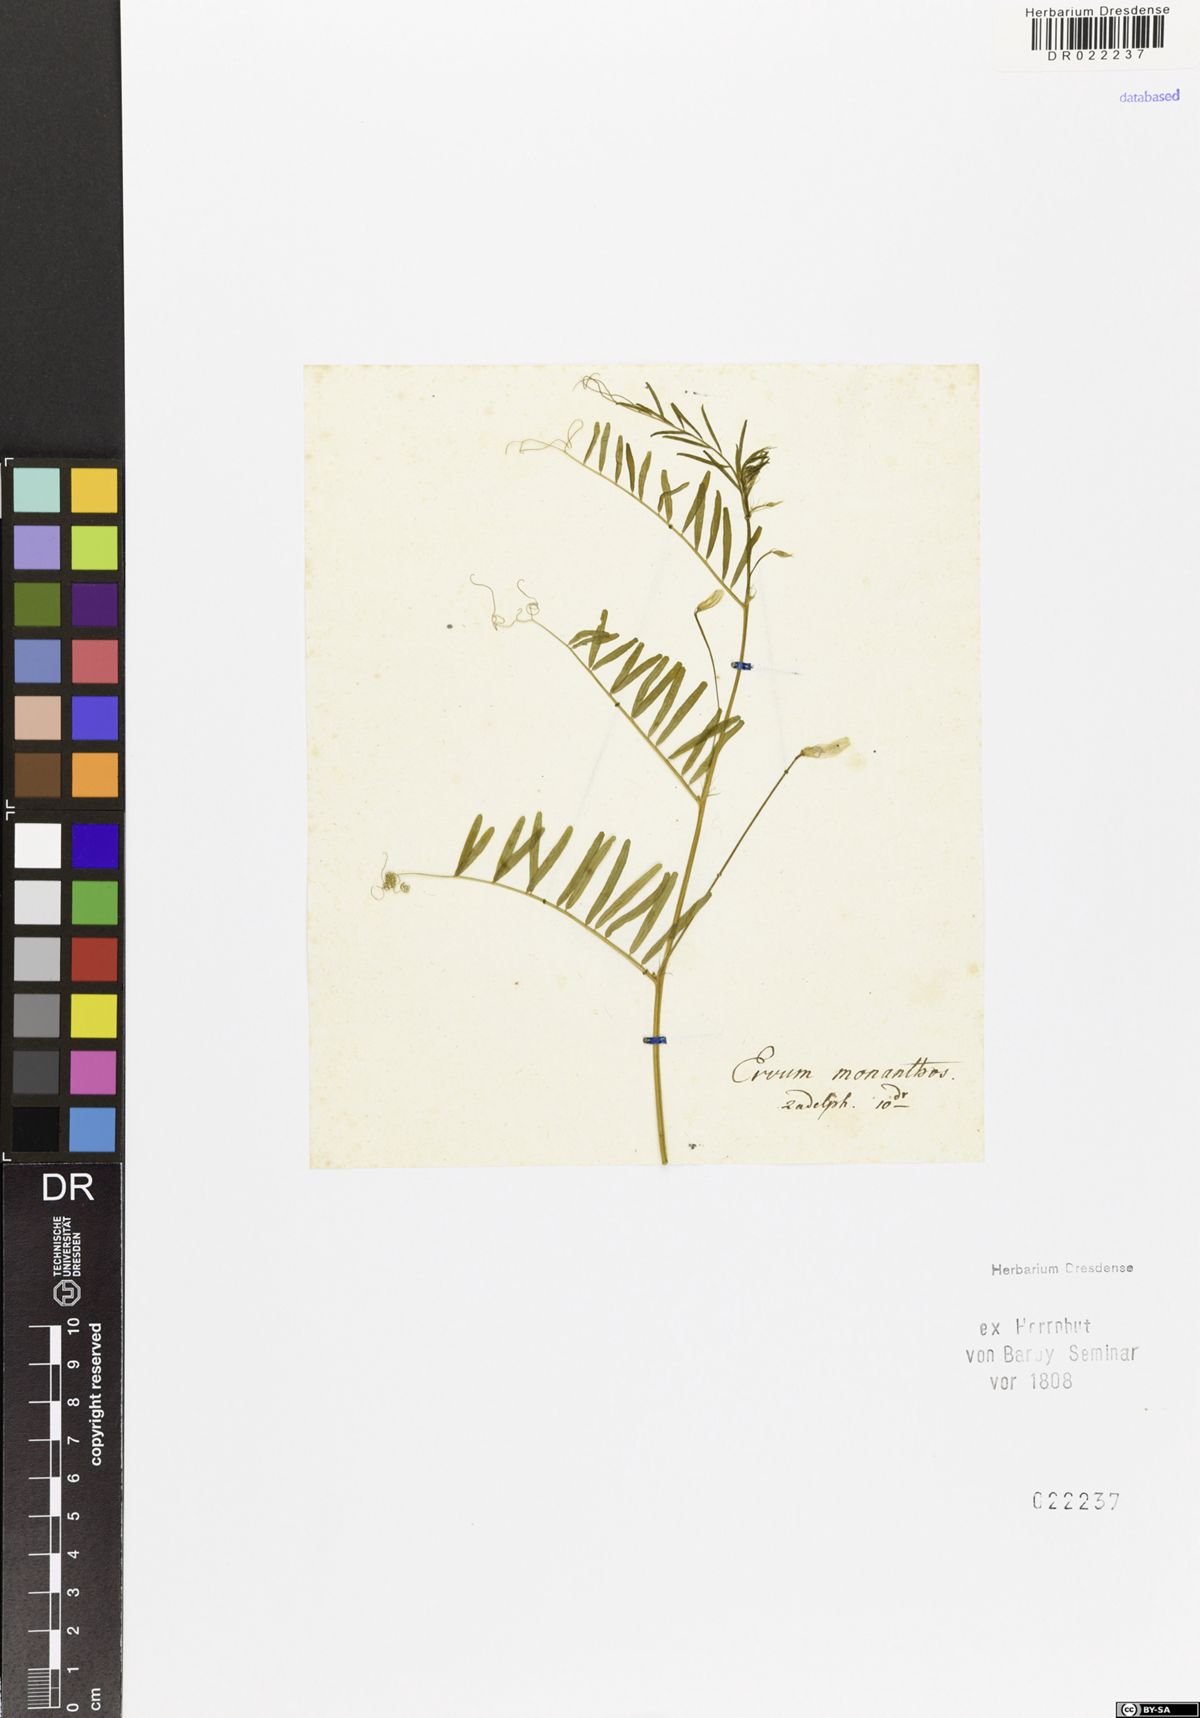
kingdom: Plantae
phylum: Tracheophyta
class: Magnoliopsida
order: Fabales
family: Fabaceae
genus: Vicia
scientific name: Vicia articulata
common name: Monantha vetch
